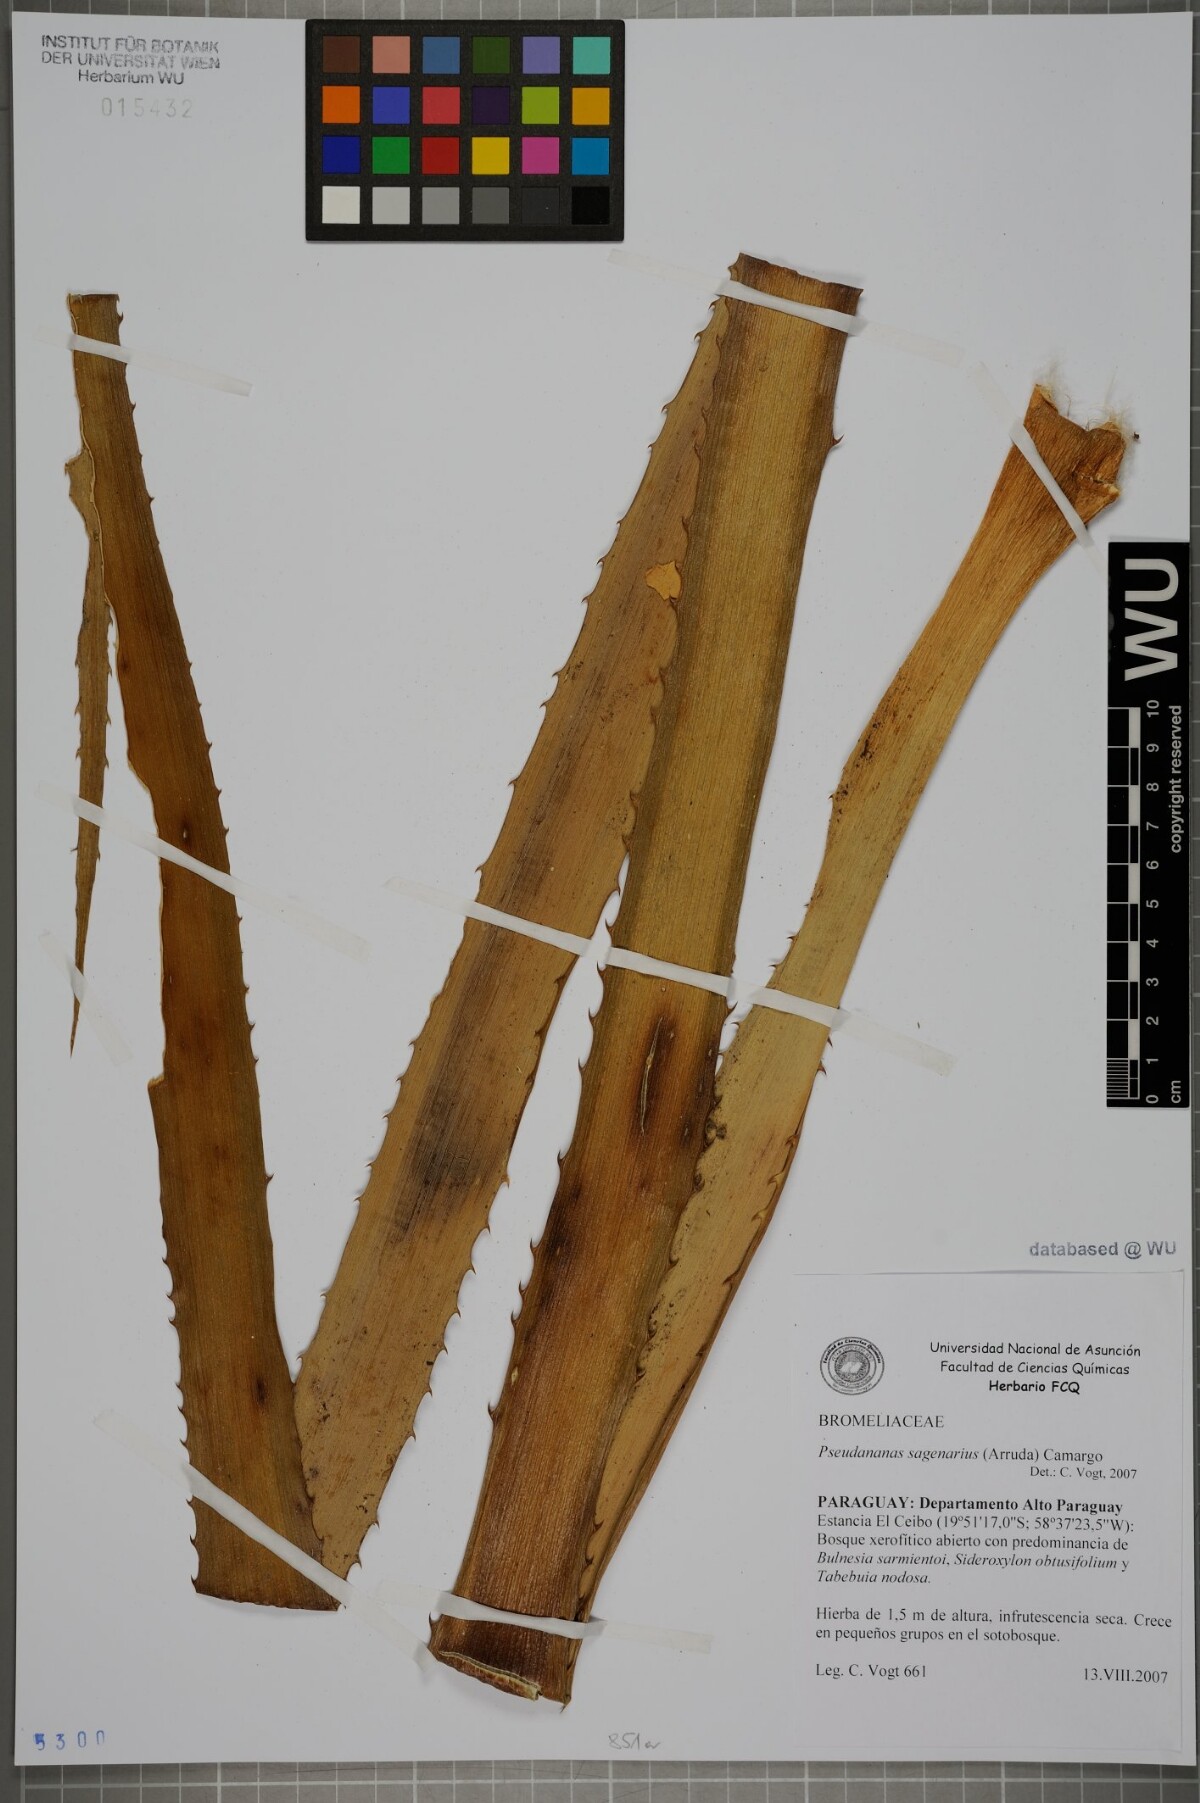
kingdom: Plantae
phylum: Tracheophyta
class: Liliopsida
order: Poales
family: Bromeliaceae
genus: Ananas
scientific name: Ananas comosus
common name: Pineapple
